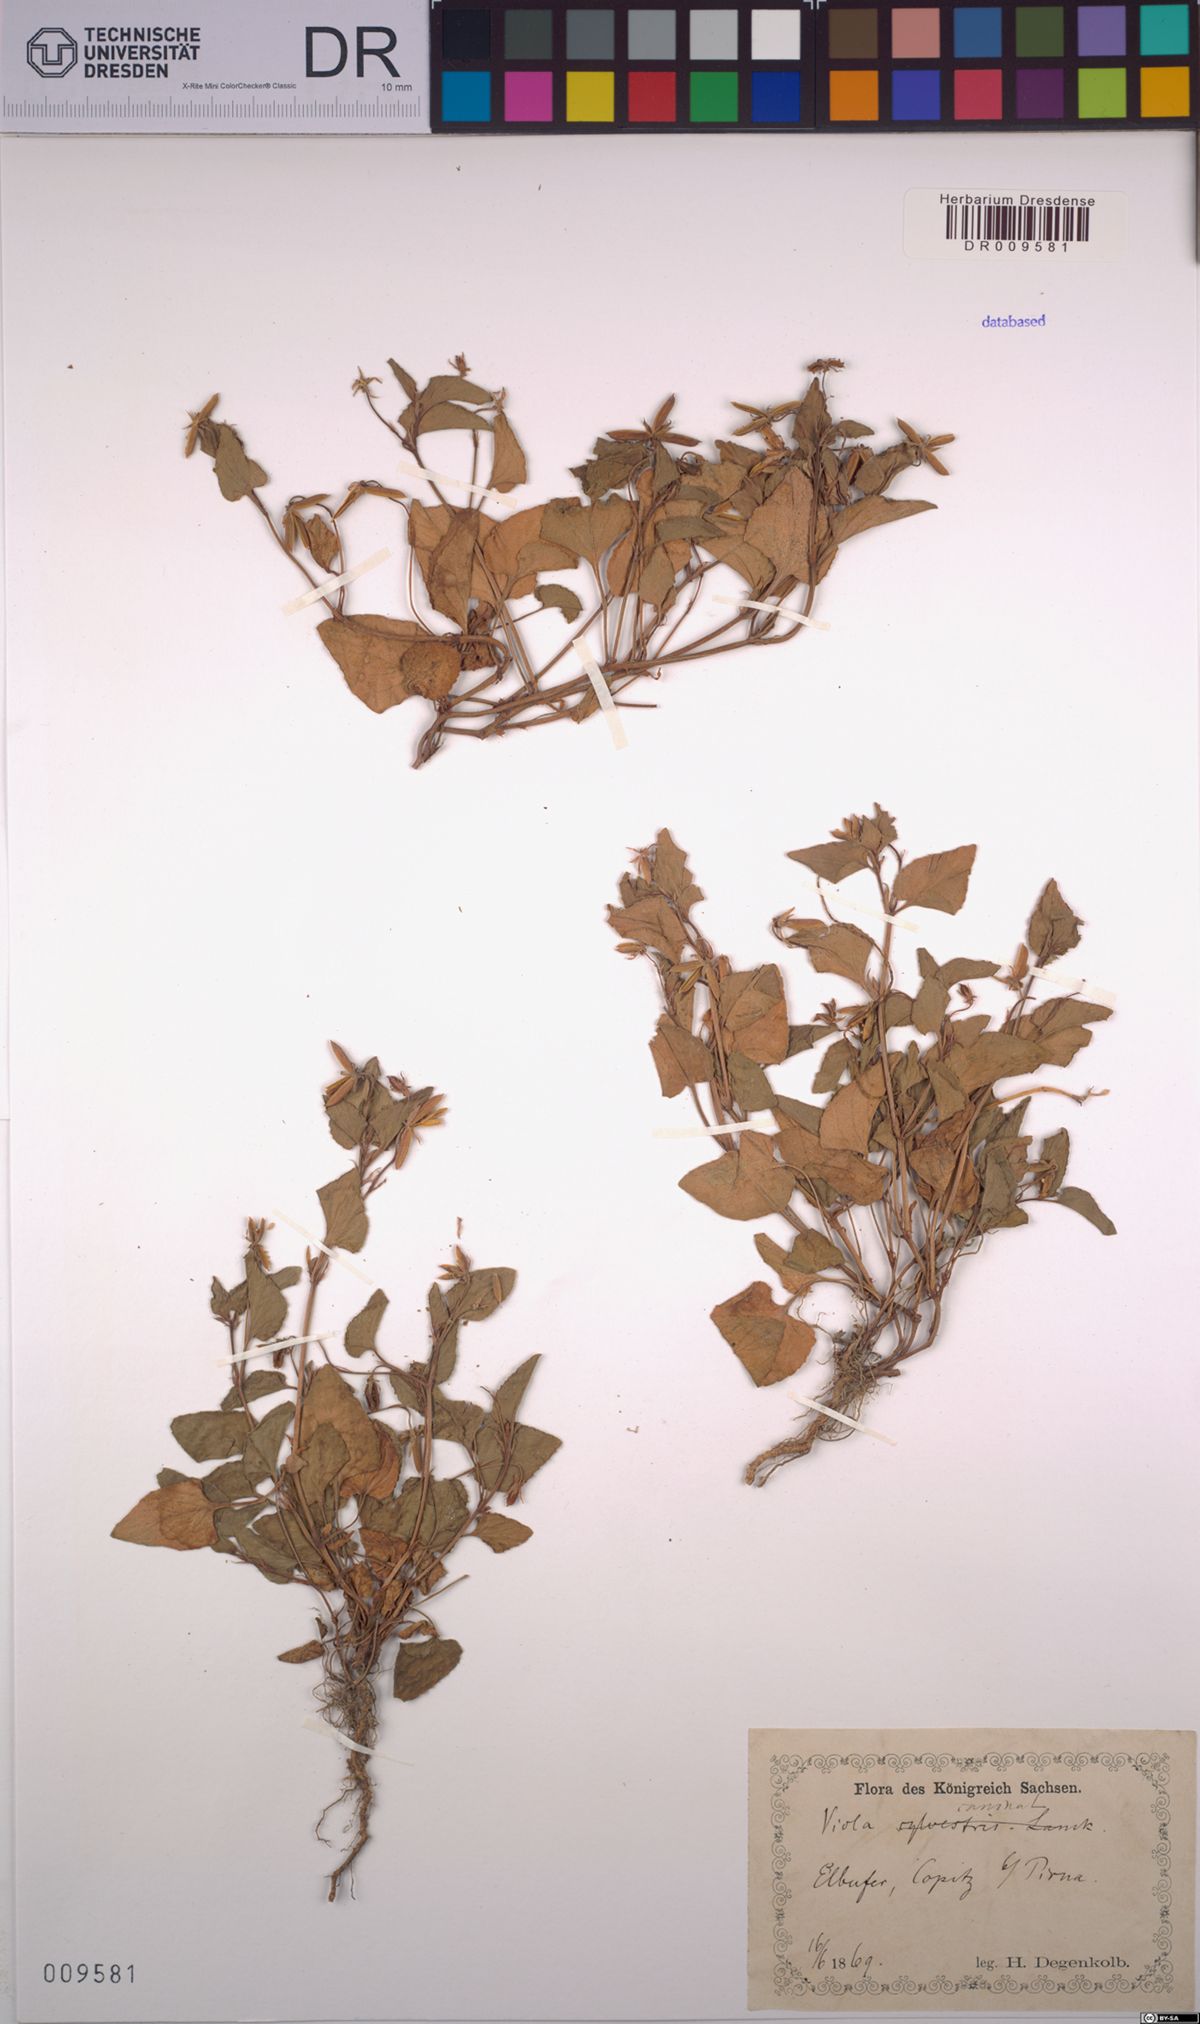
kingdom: Plantae
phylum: Tracheophyta
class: Magnoliopsida
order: Malpighiales
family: Violaceae
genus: Viola
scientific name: Viola canina
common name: Heath dog-violet
